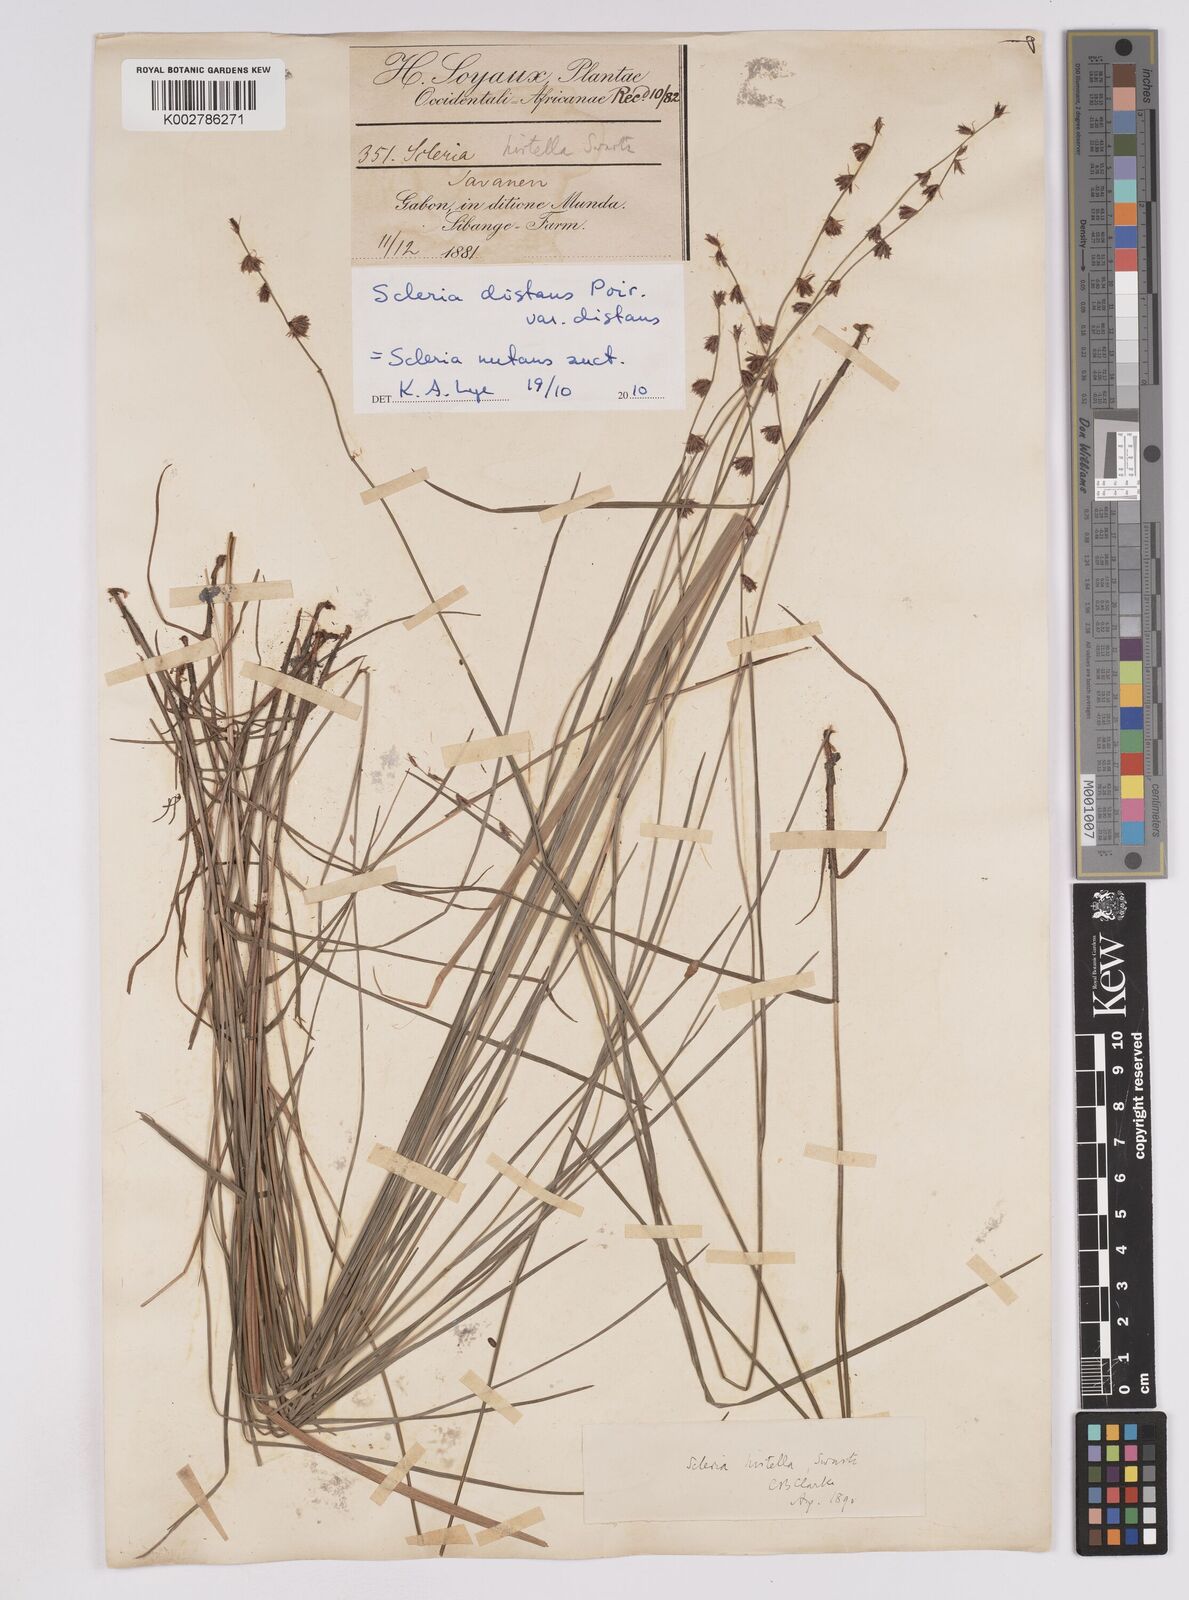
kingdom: Plantae
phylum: Tracheophyta
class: Liliopsida
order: Poales
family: Cyperaceae
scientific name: Cyperaceae
